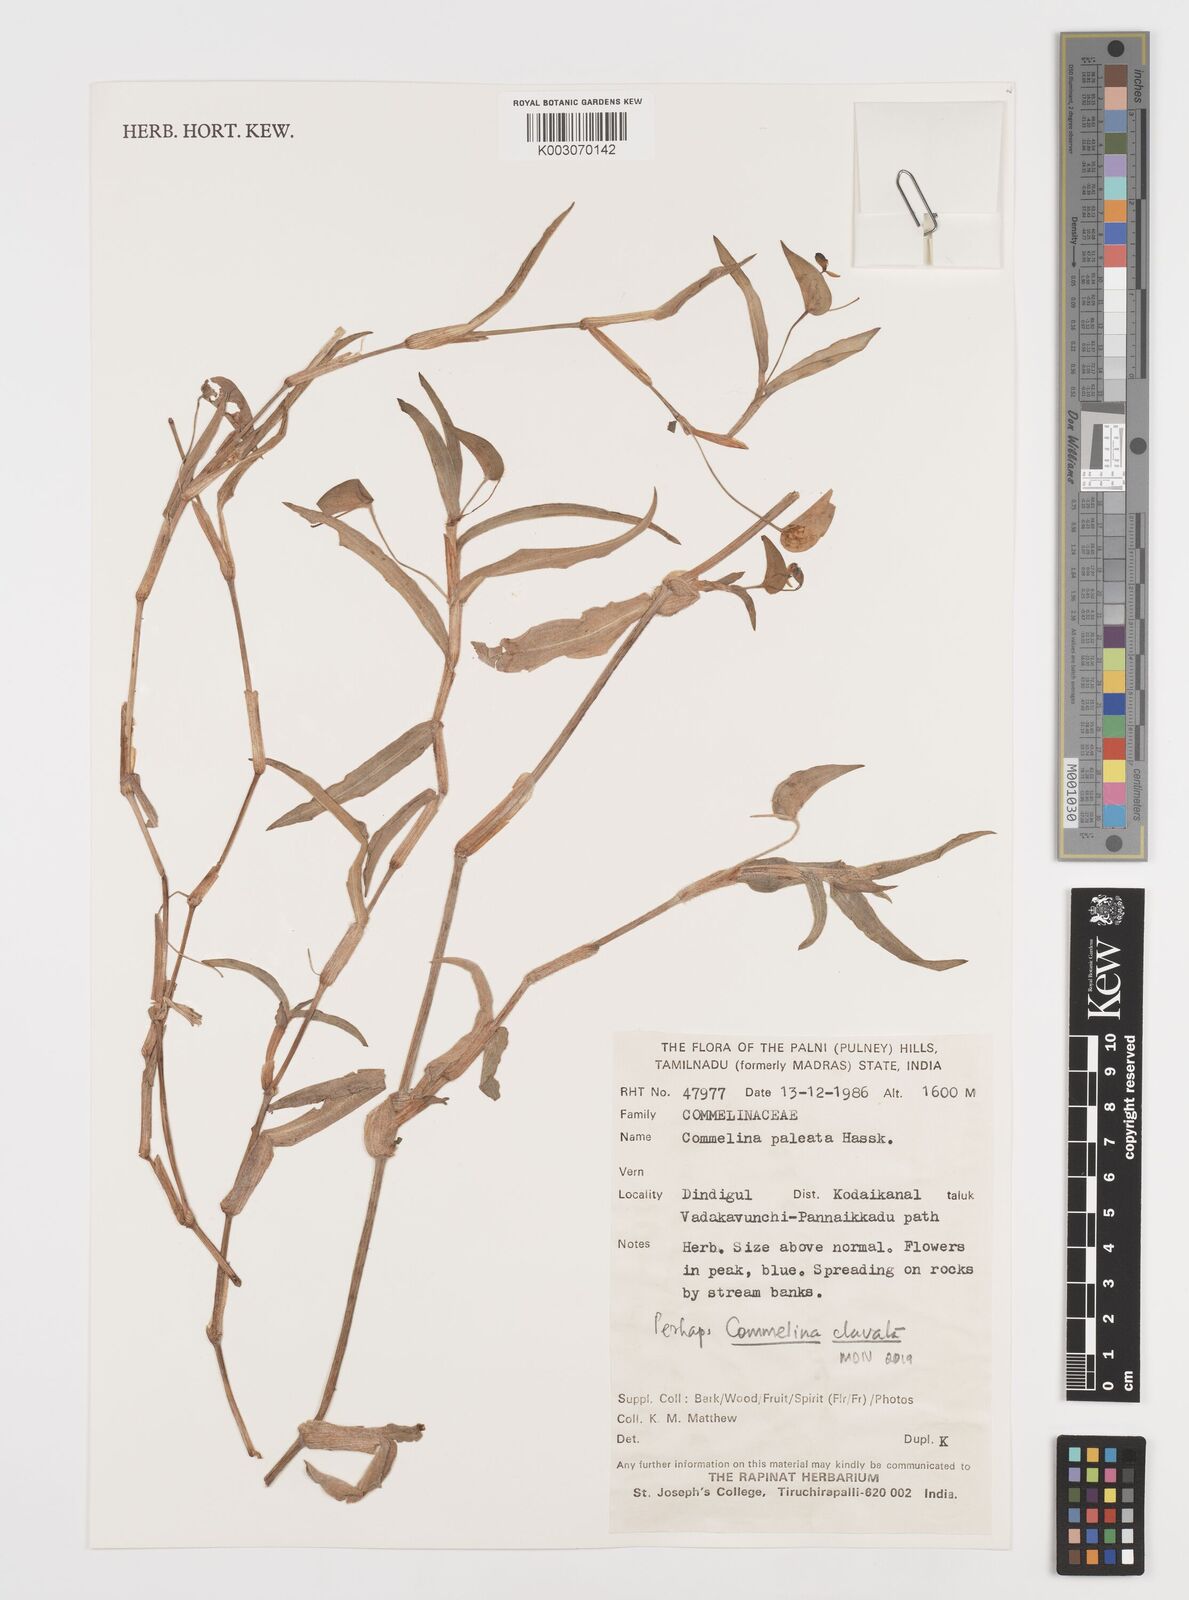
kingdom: Plantae
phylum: Tracheophyta
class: Liliopsida
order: Commelinales
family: Commelinaceae
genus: Commelina
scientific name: Commelina clavata
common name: Willow leaved dayflower
